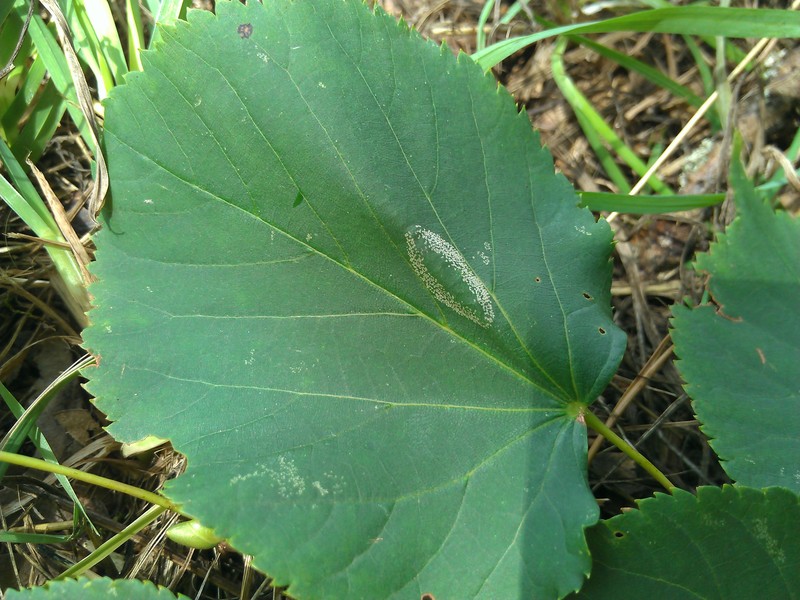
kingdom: Animalia
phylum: Arthropoda
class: Insecta
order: Lepidoptera
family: Gracillariidae
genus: Phyllonorycter
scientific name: Phyllonorycter
